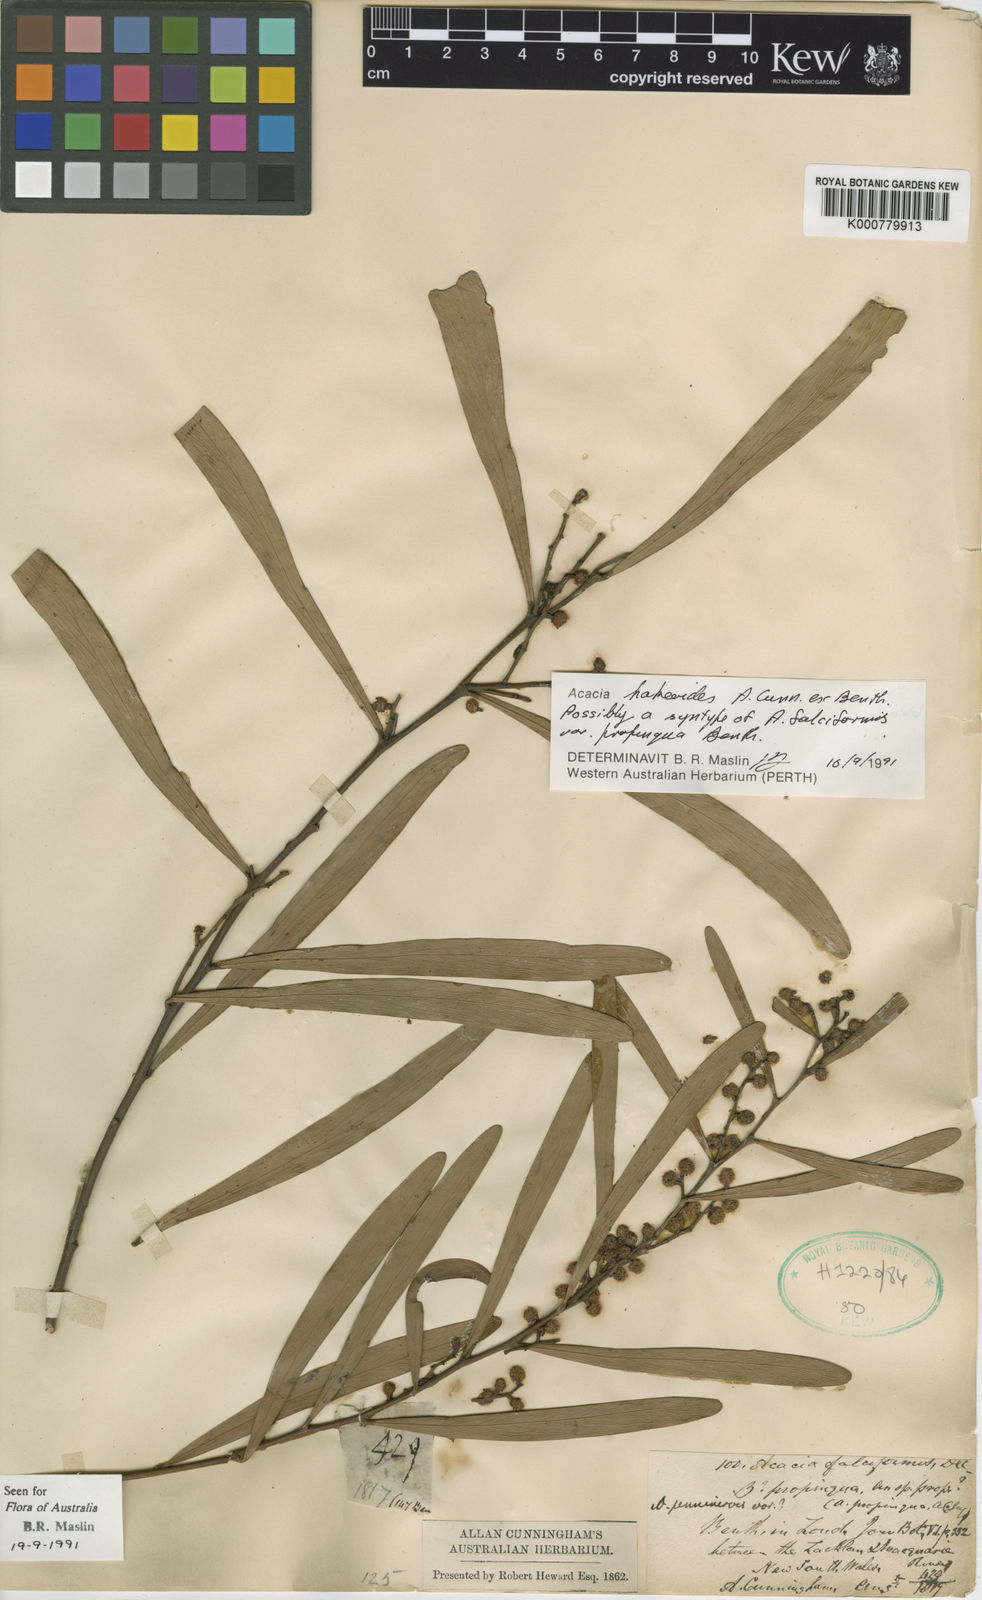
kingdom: Plantae
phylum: Tracheophyta
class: Magnoliopsida
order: Fabales
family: Fabaceae
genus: Acacia
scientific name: Acacia hakeoides
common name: Hakea wattle
